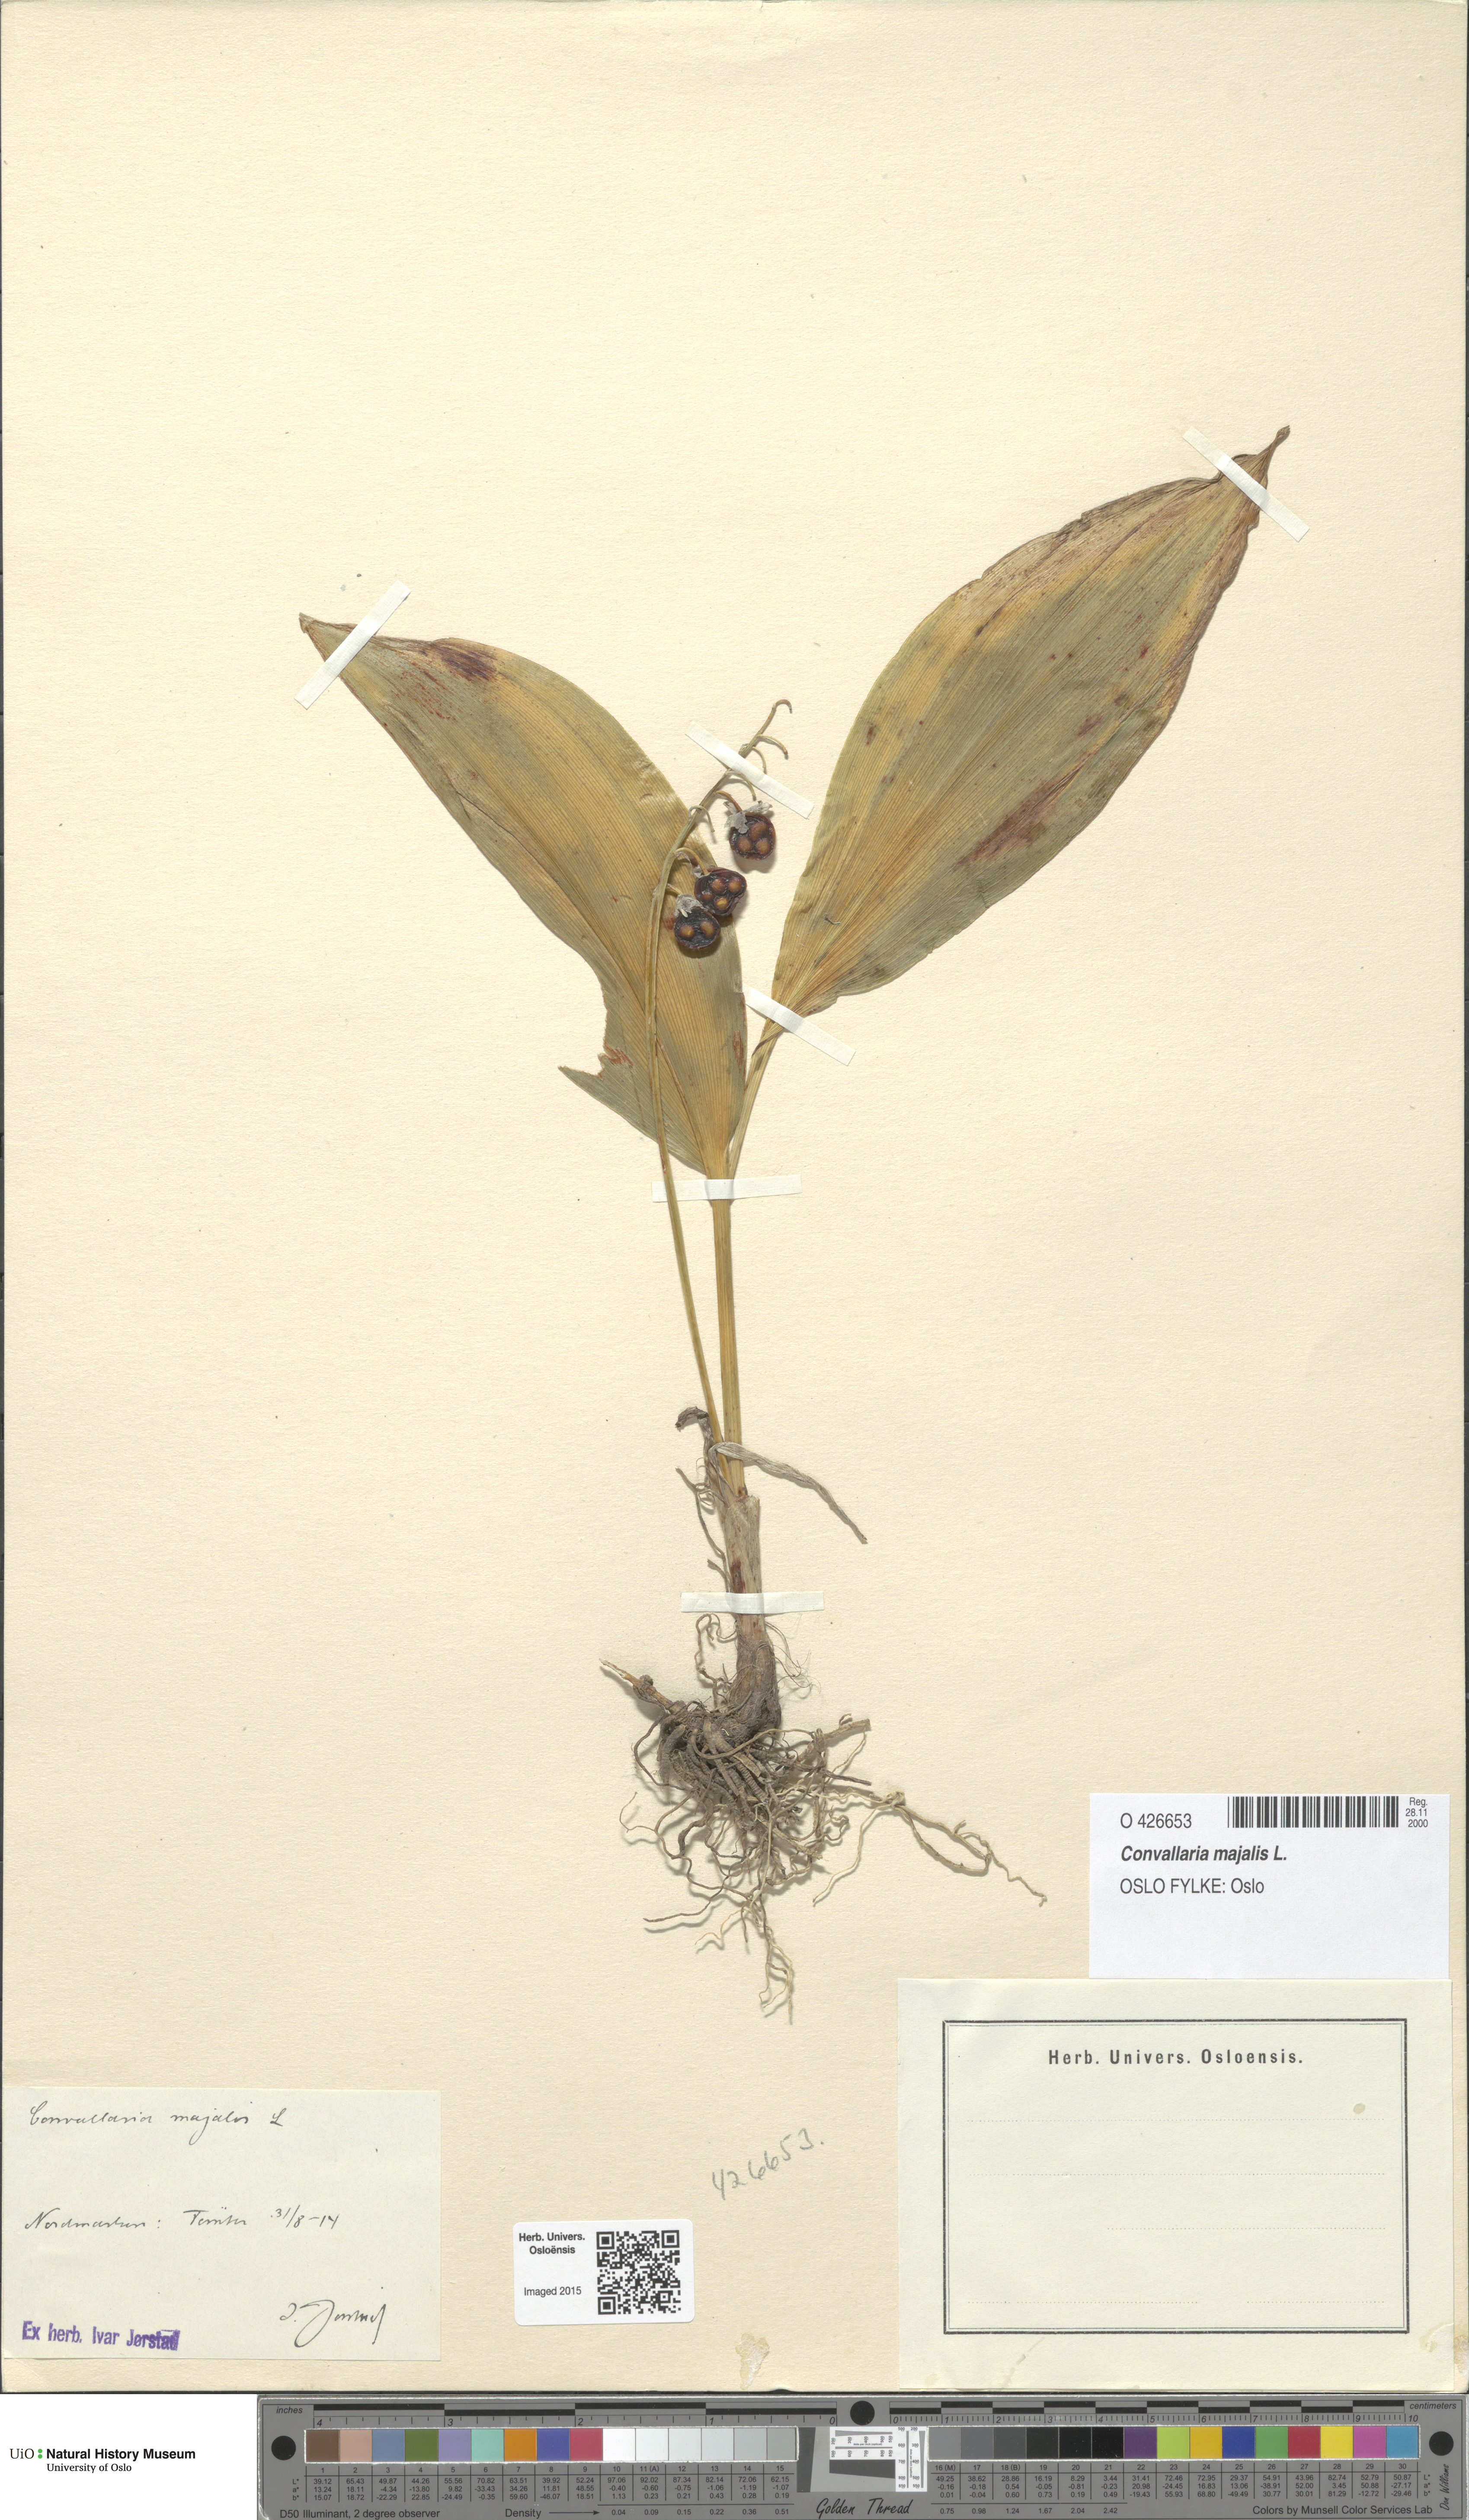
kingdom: Plantae
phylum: Tracheophyta
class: Liliopsida
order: Asparagales
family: Asparagaceae
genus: Convallaria
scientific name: Convallaria majalis
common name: Lily-of-the-valley
